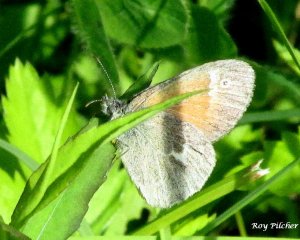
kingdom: Animalia
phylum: Arthropoda
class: Insecta
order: Lepidoptera
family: Nymphalidae
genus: Coenonympha
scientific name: Coenonympha tullia
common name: Large Heath
